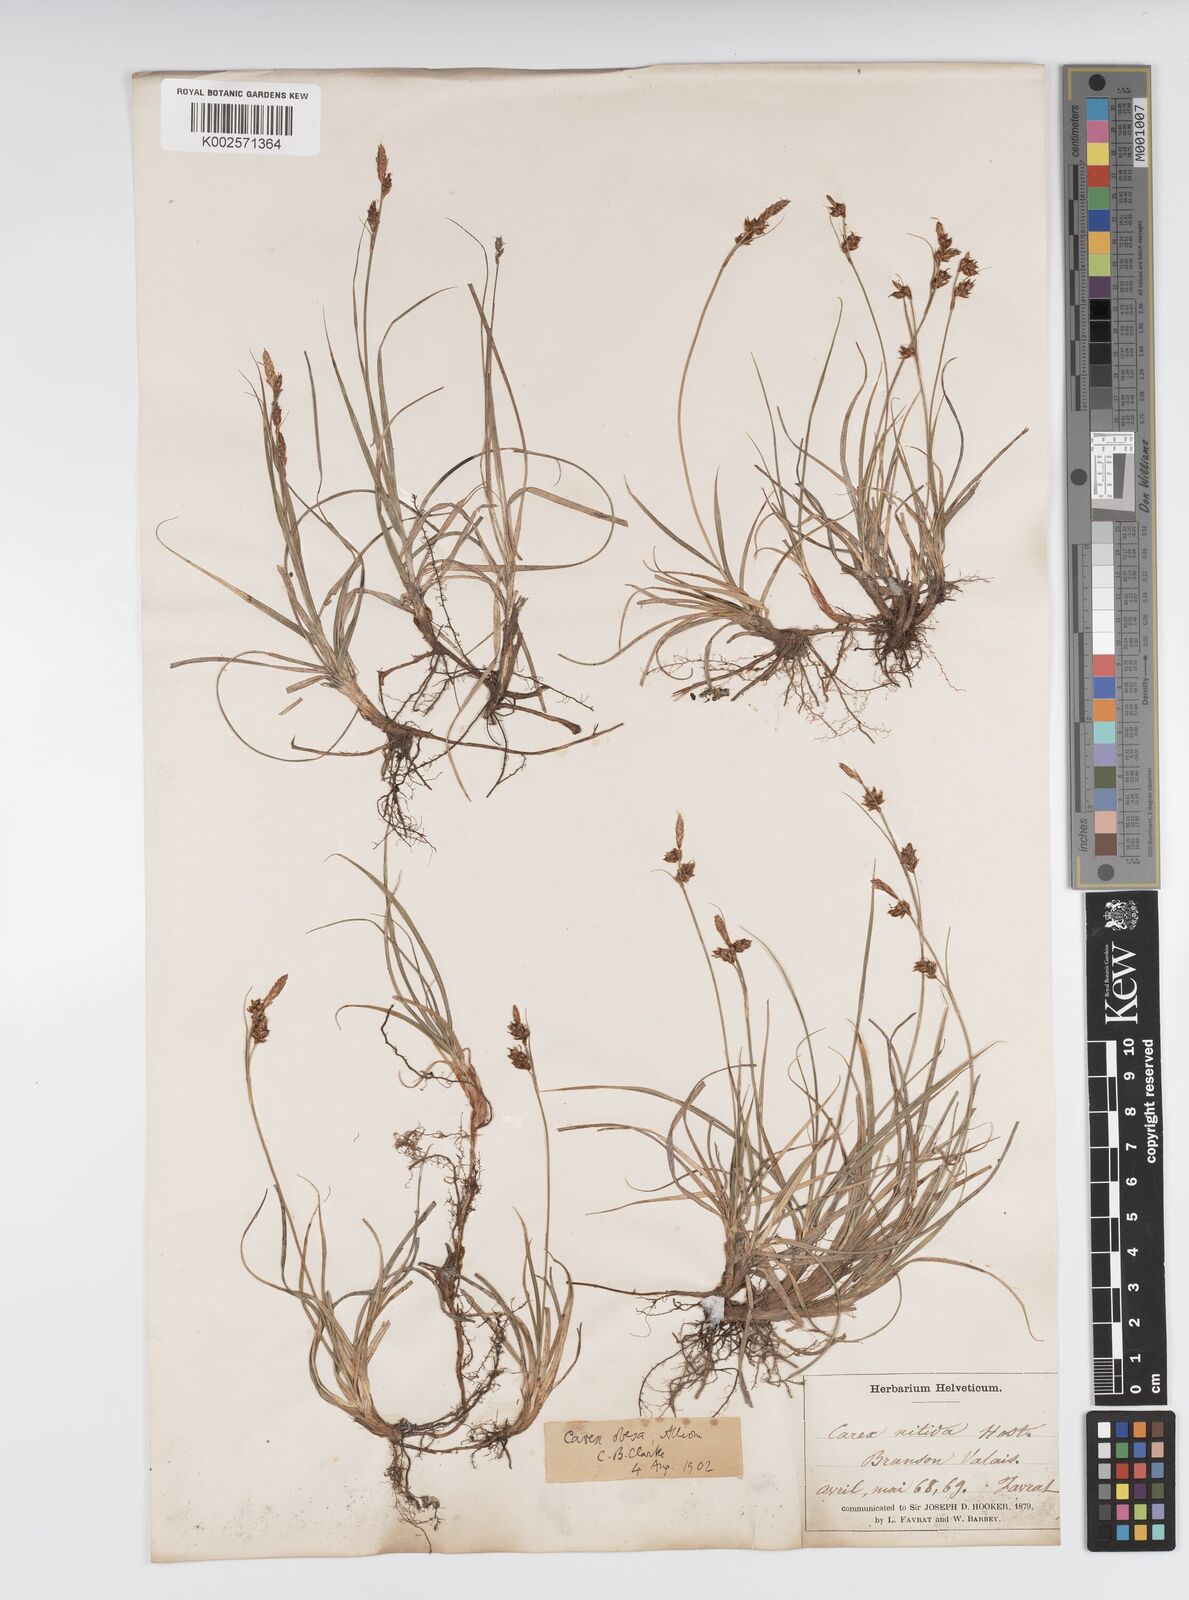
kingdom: Plantae
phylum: Tracheophyta
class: Liliopsida
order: Poales
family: Cyperaceae
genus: Carex
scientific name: Carex liparocarpos
